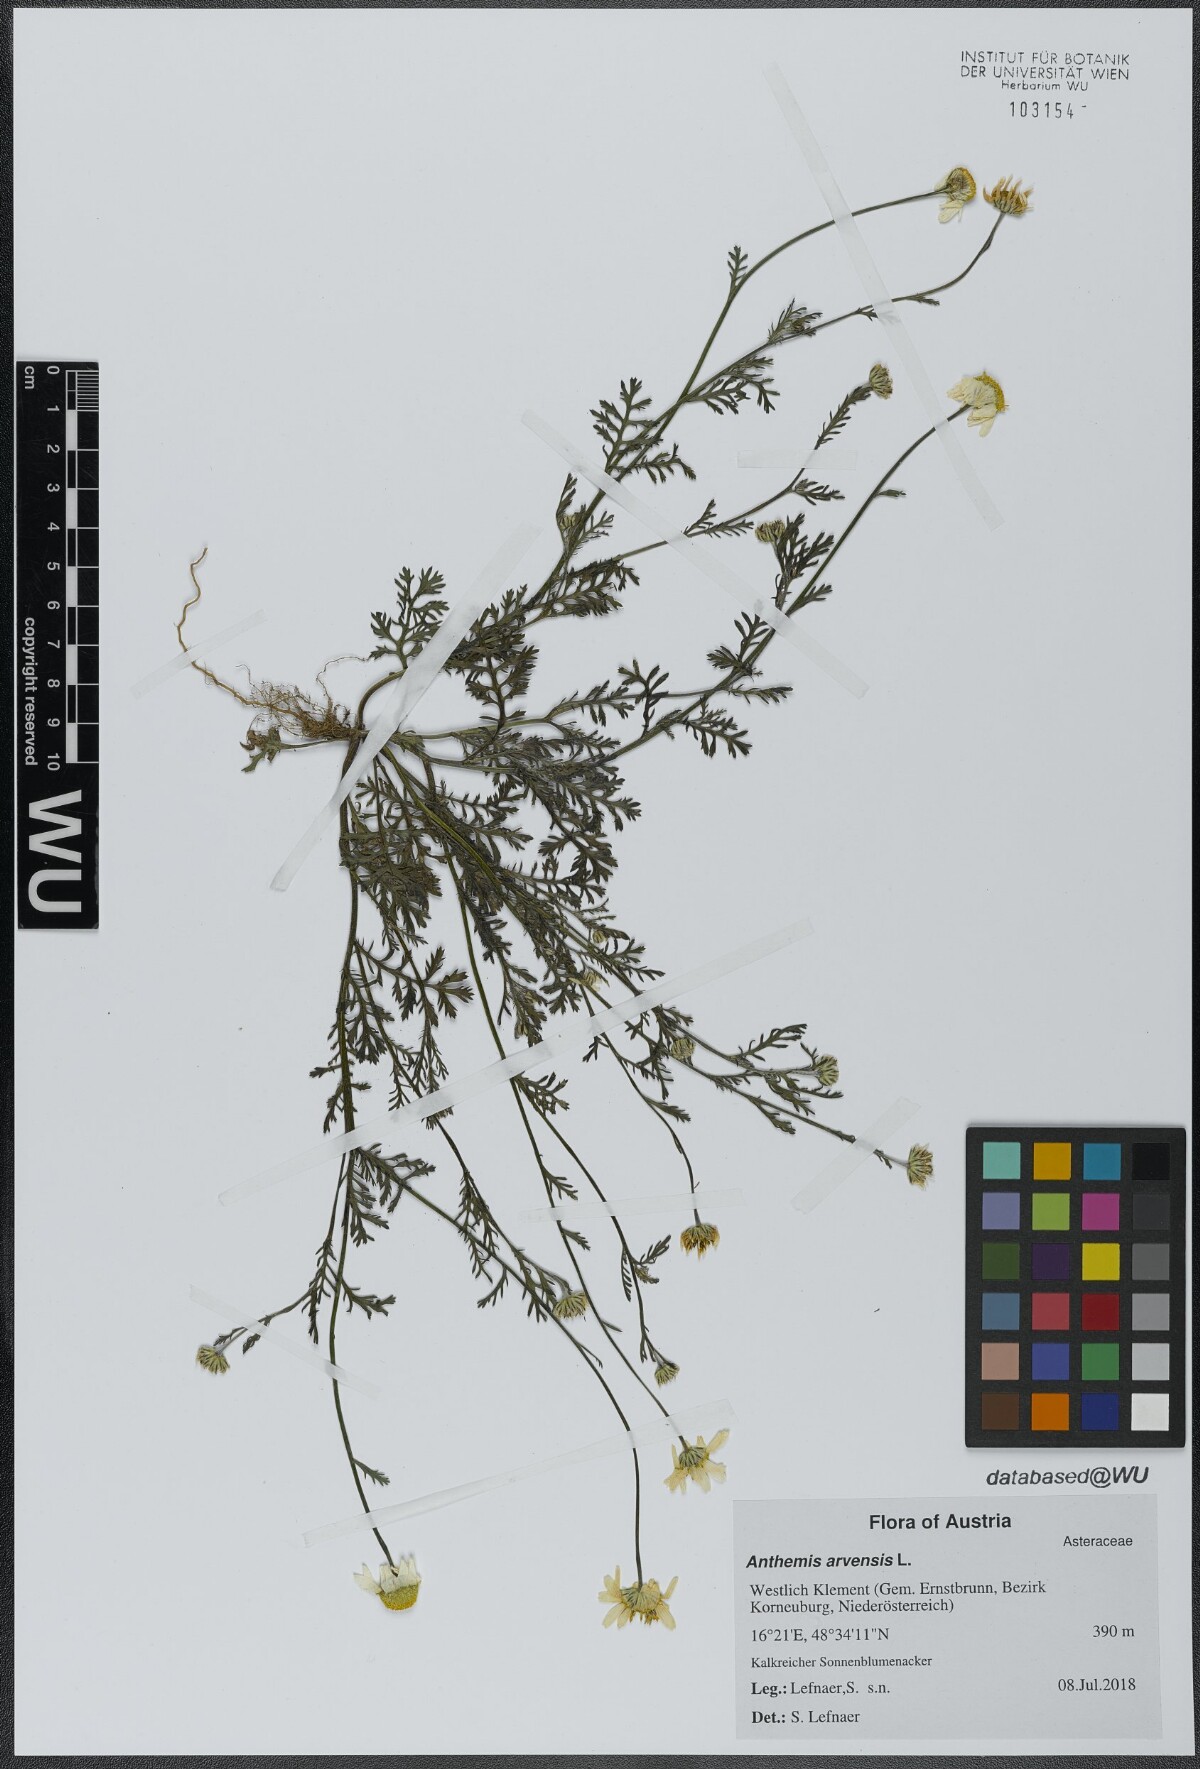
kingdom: Plantae
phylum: Tracheophyta
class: Magnoliopsida
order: Asterales
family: Asteraceae
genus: Anthemis
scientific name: Anthemis arvensis
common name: Corn chamomile
